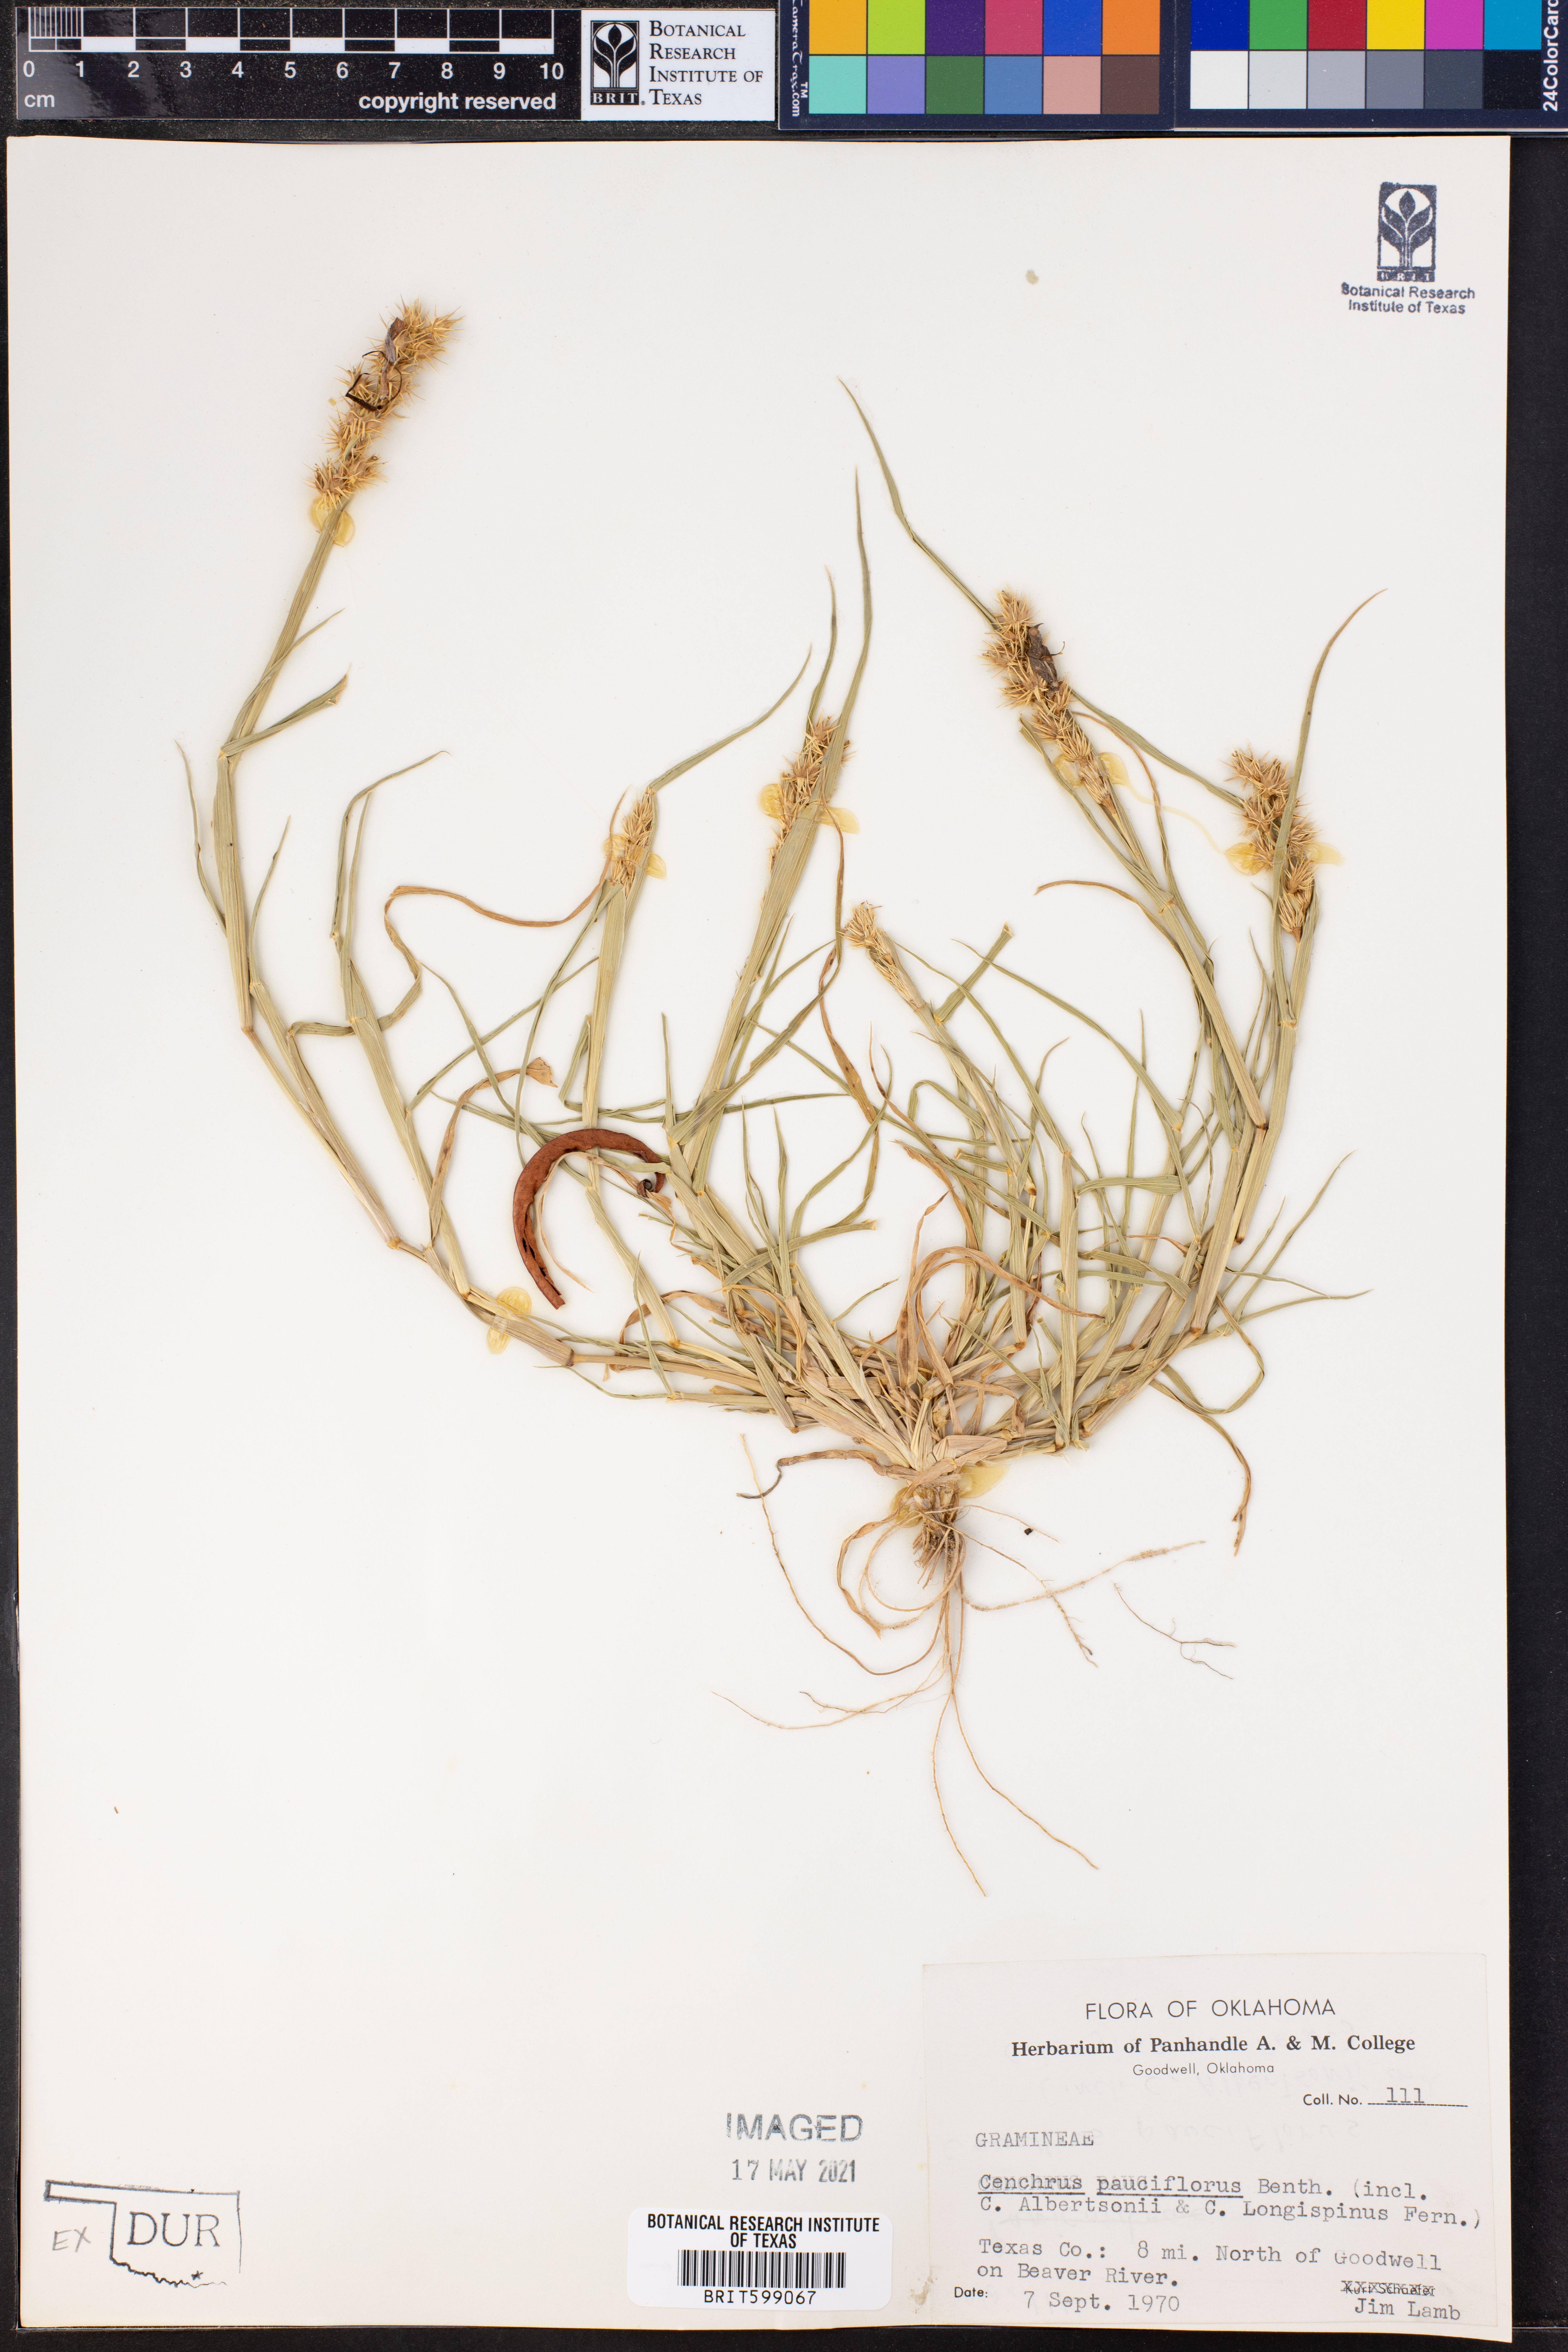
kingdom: Plantae
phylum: Tracheophyta
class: Liliopsida
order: Poales
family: Poaceae
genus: Cenchrus
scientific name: Cenchrus spinifex
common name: Coast sandbur
